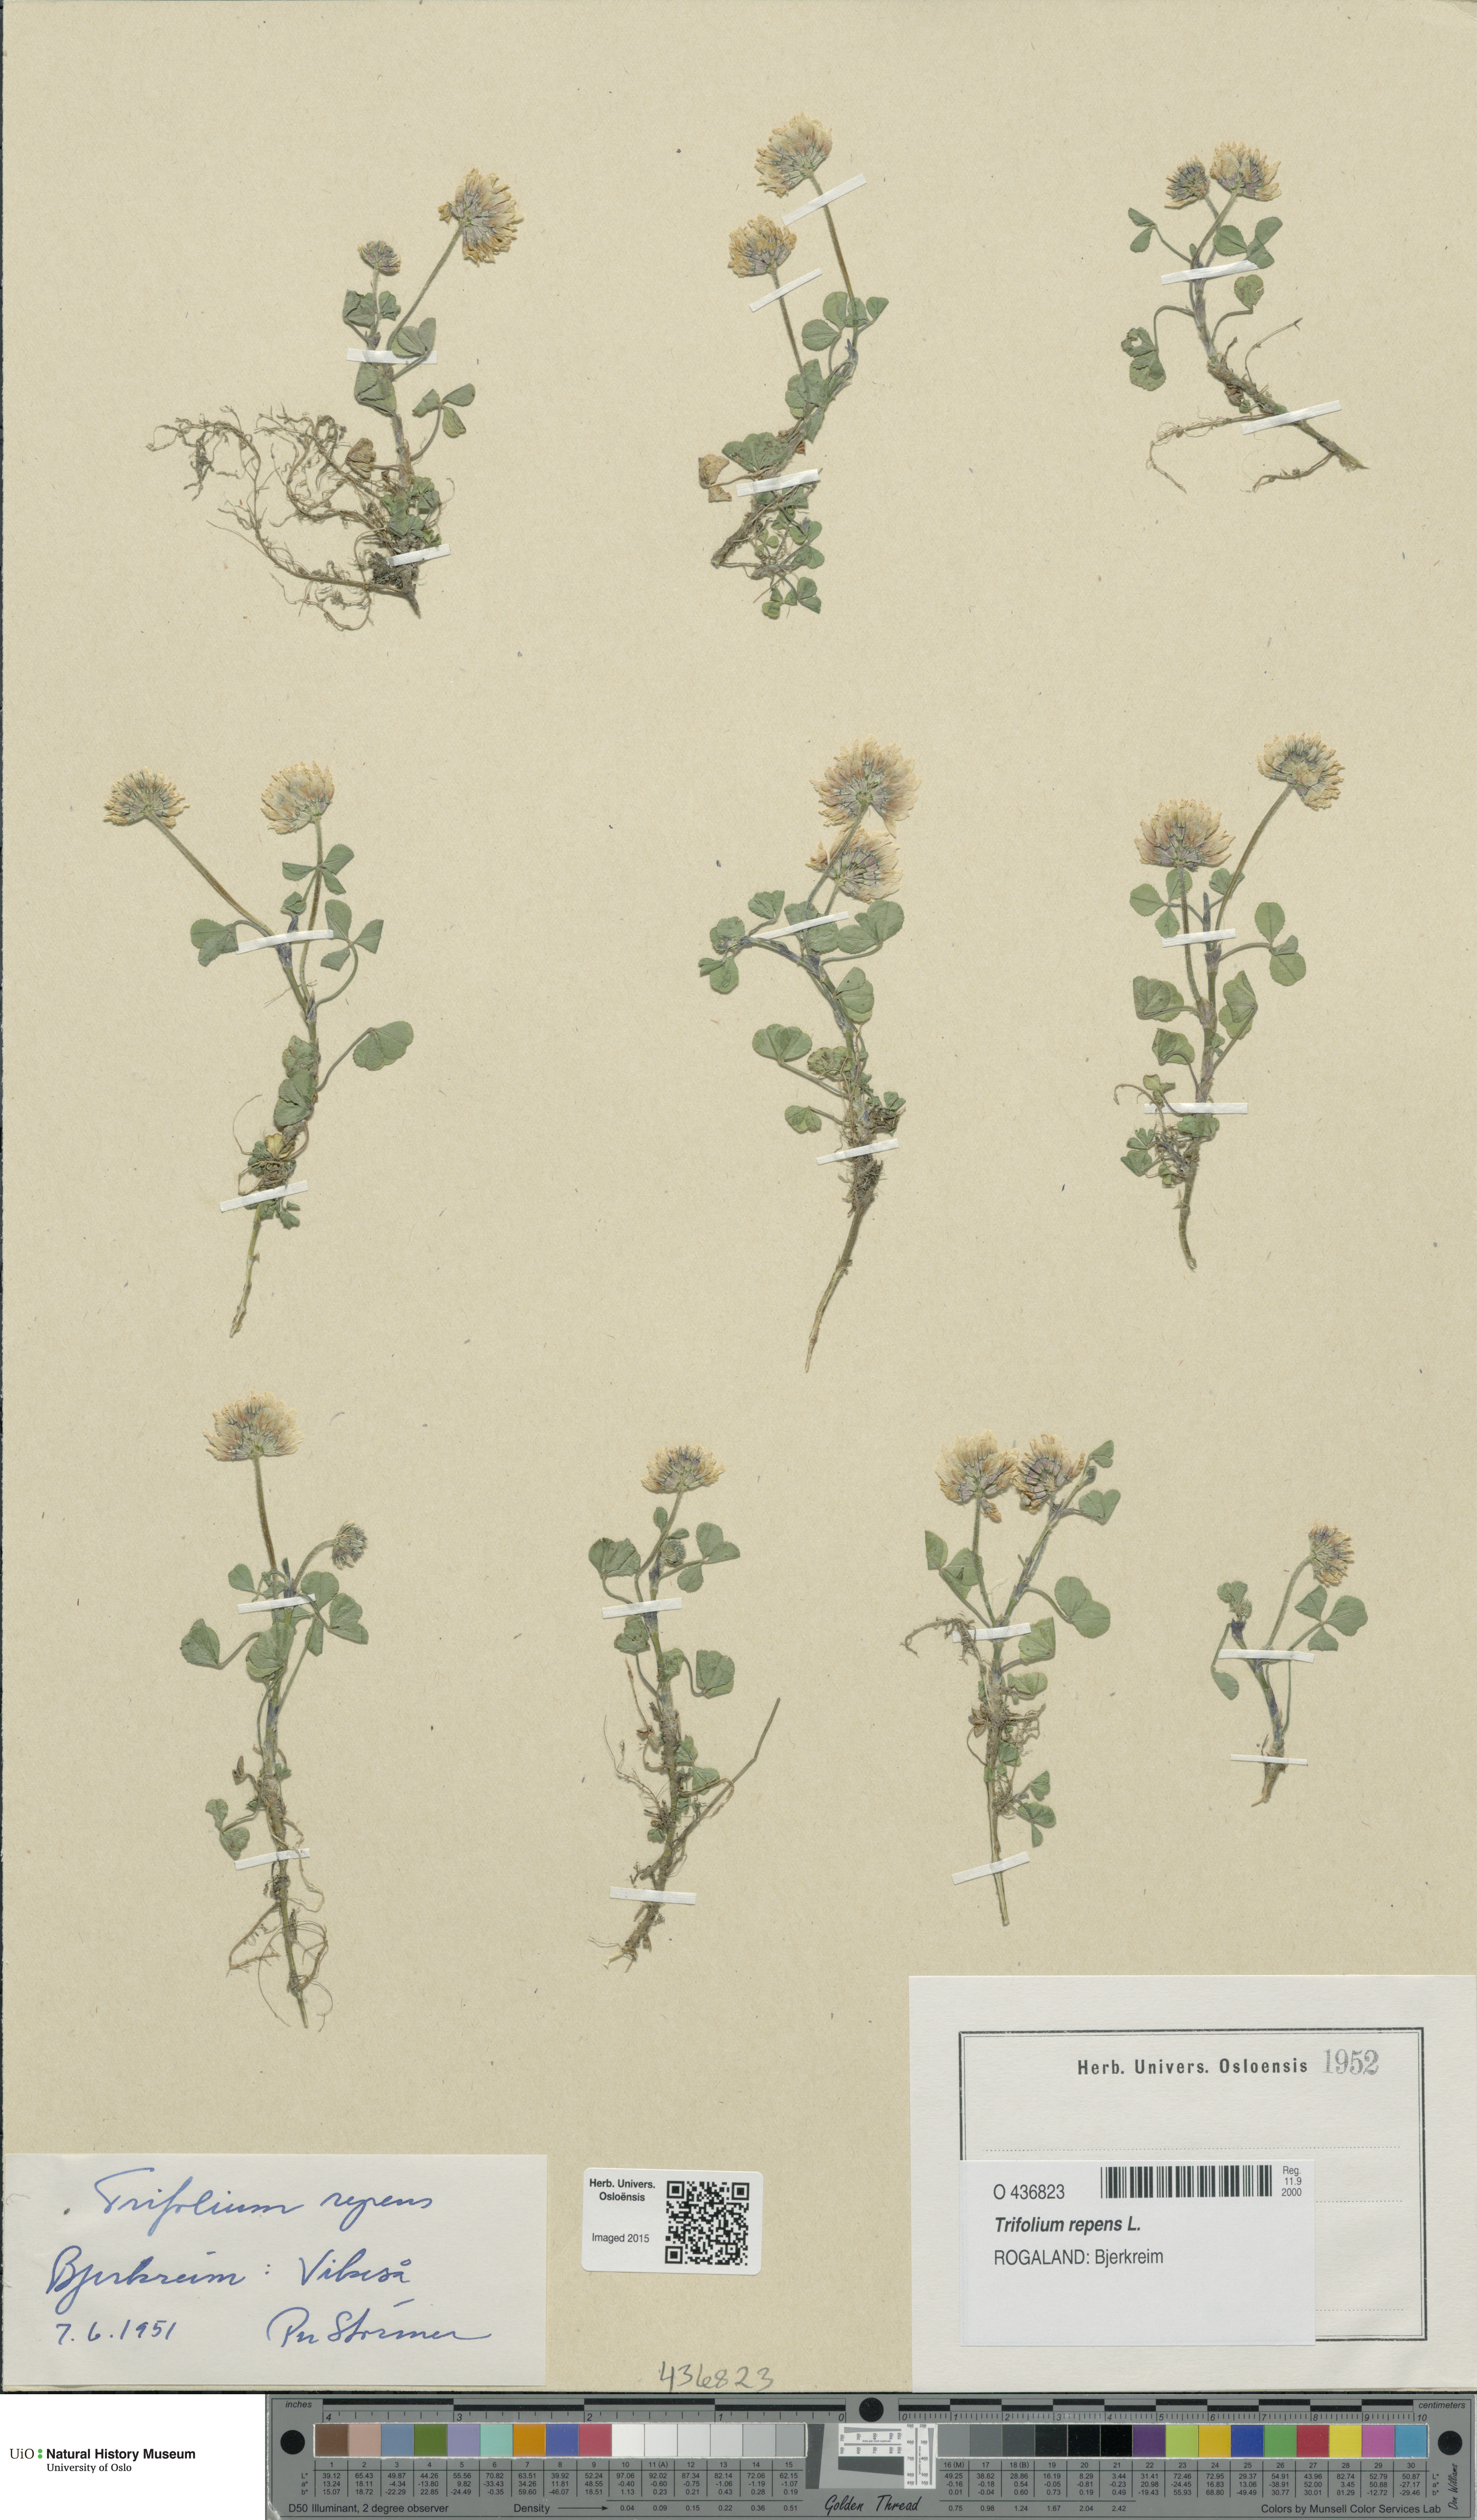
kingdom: Plantae
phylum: Tracheophyta
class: Magnoliopsida
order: Fabales
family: Fabaceae
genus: Trifolium
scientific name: Trifolium repens
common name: White clover
